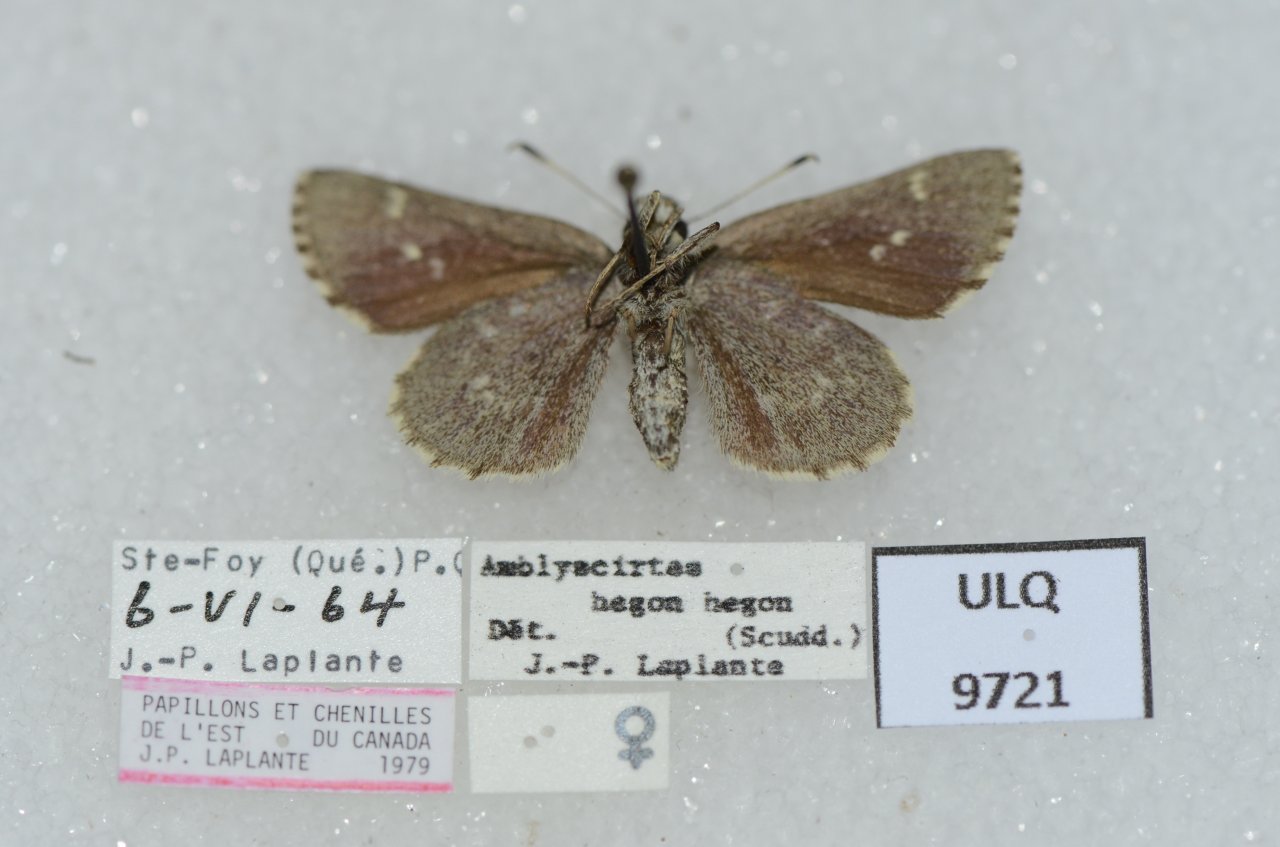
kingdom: Animalia
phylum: Arthropoda
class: Insecta
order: Lepidoptera
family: Hesperiidae
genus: Mastor
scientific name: Mastor hegon
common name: Pepper and Salt Skipper
